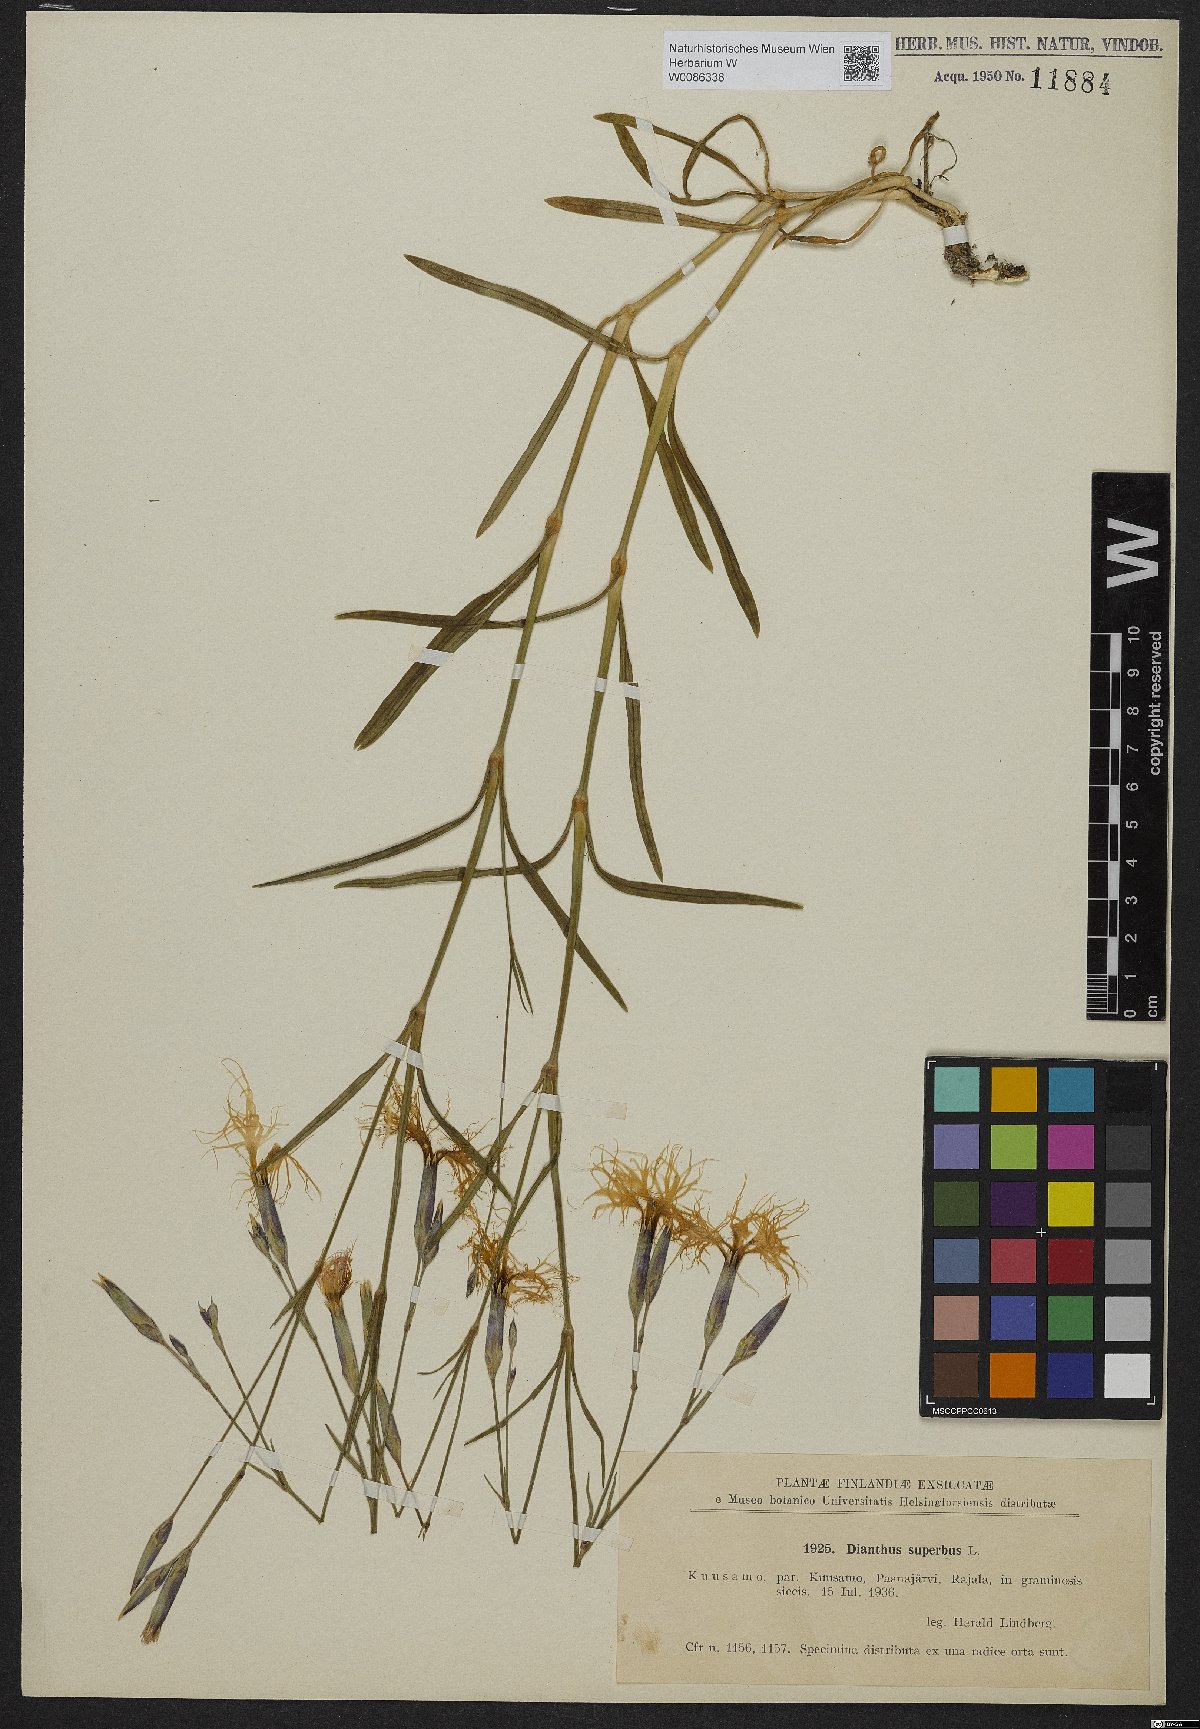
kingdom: Plantae
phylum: Tracheophyta
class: Magnoliopsida
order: Caryophyllales
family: Caryophyllaceae
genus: Dianthus
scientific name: Dianthus superbus
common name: Fringed pink
